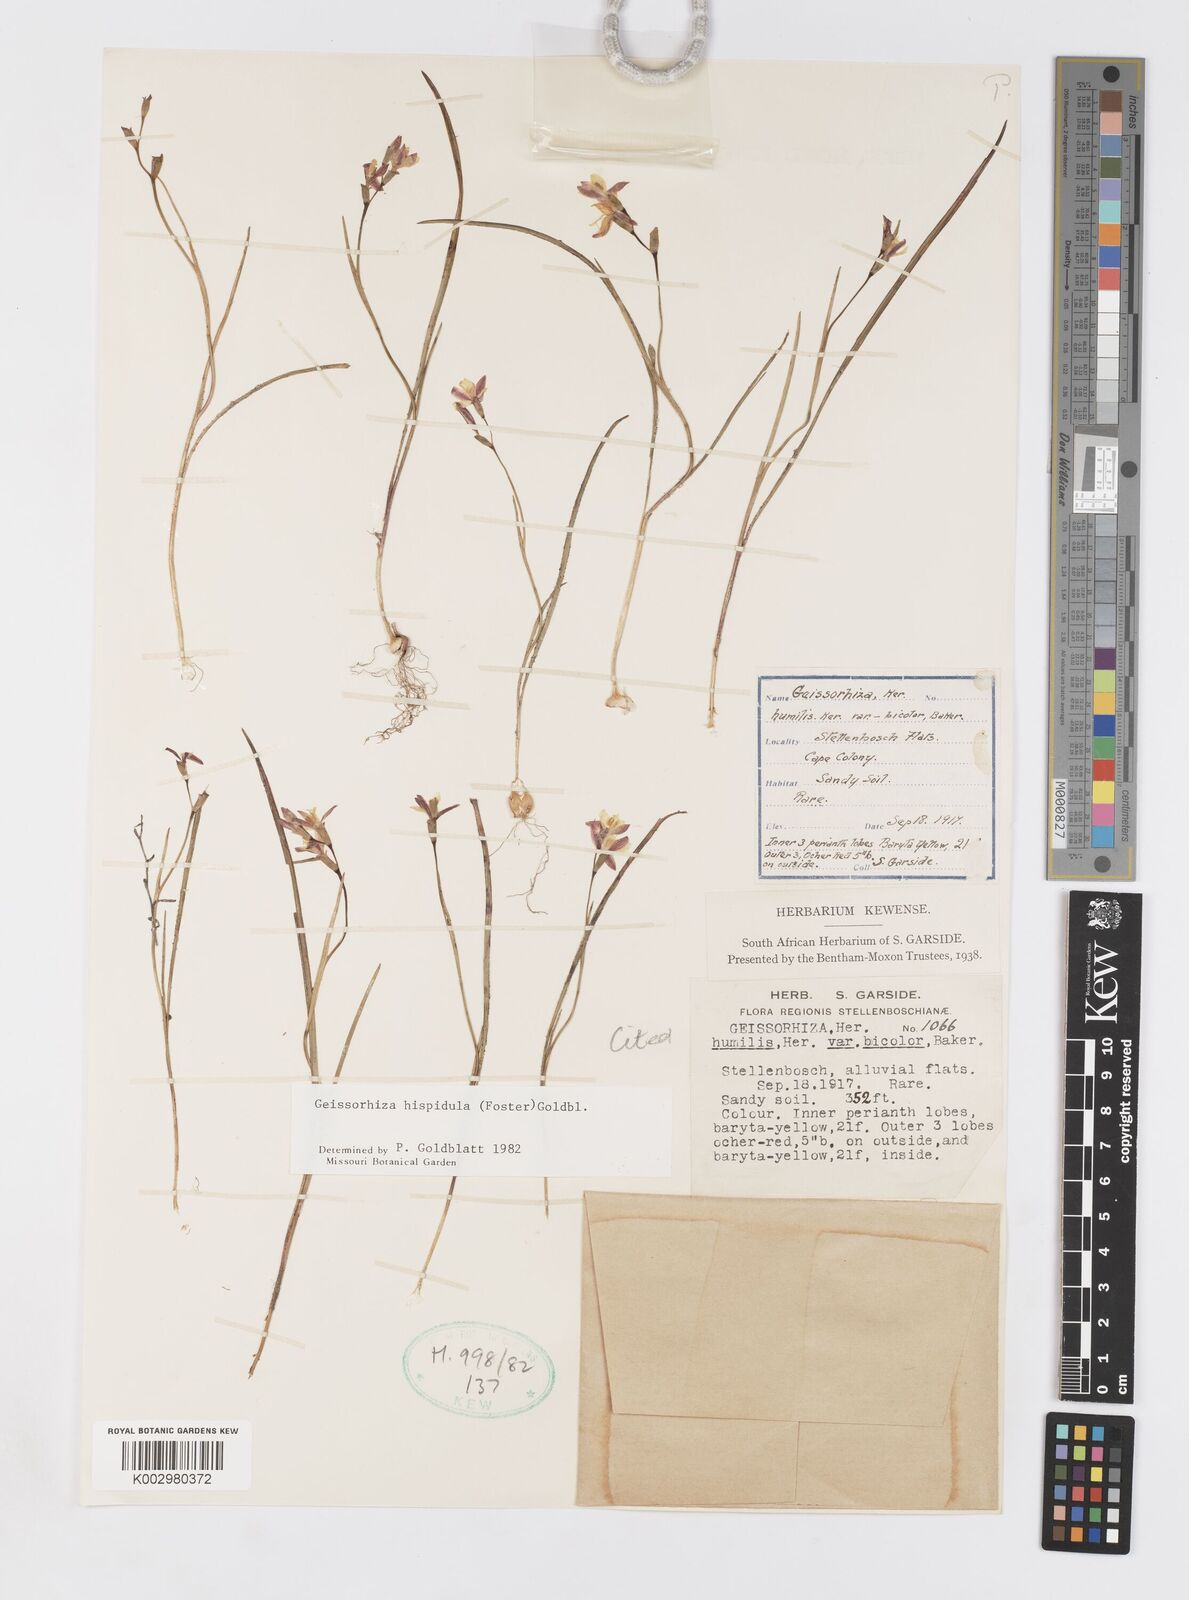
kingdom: Plantae
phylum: Tracheophyta
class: Liliopsida
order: Asparagales
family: Iridaceae
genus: Geissorhiza
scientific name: Geissorhiza hispidula
